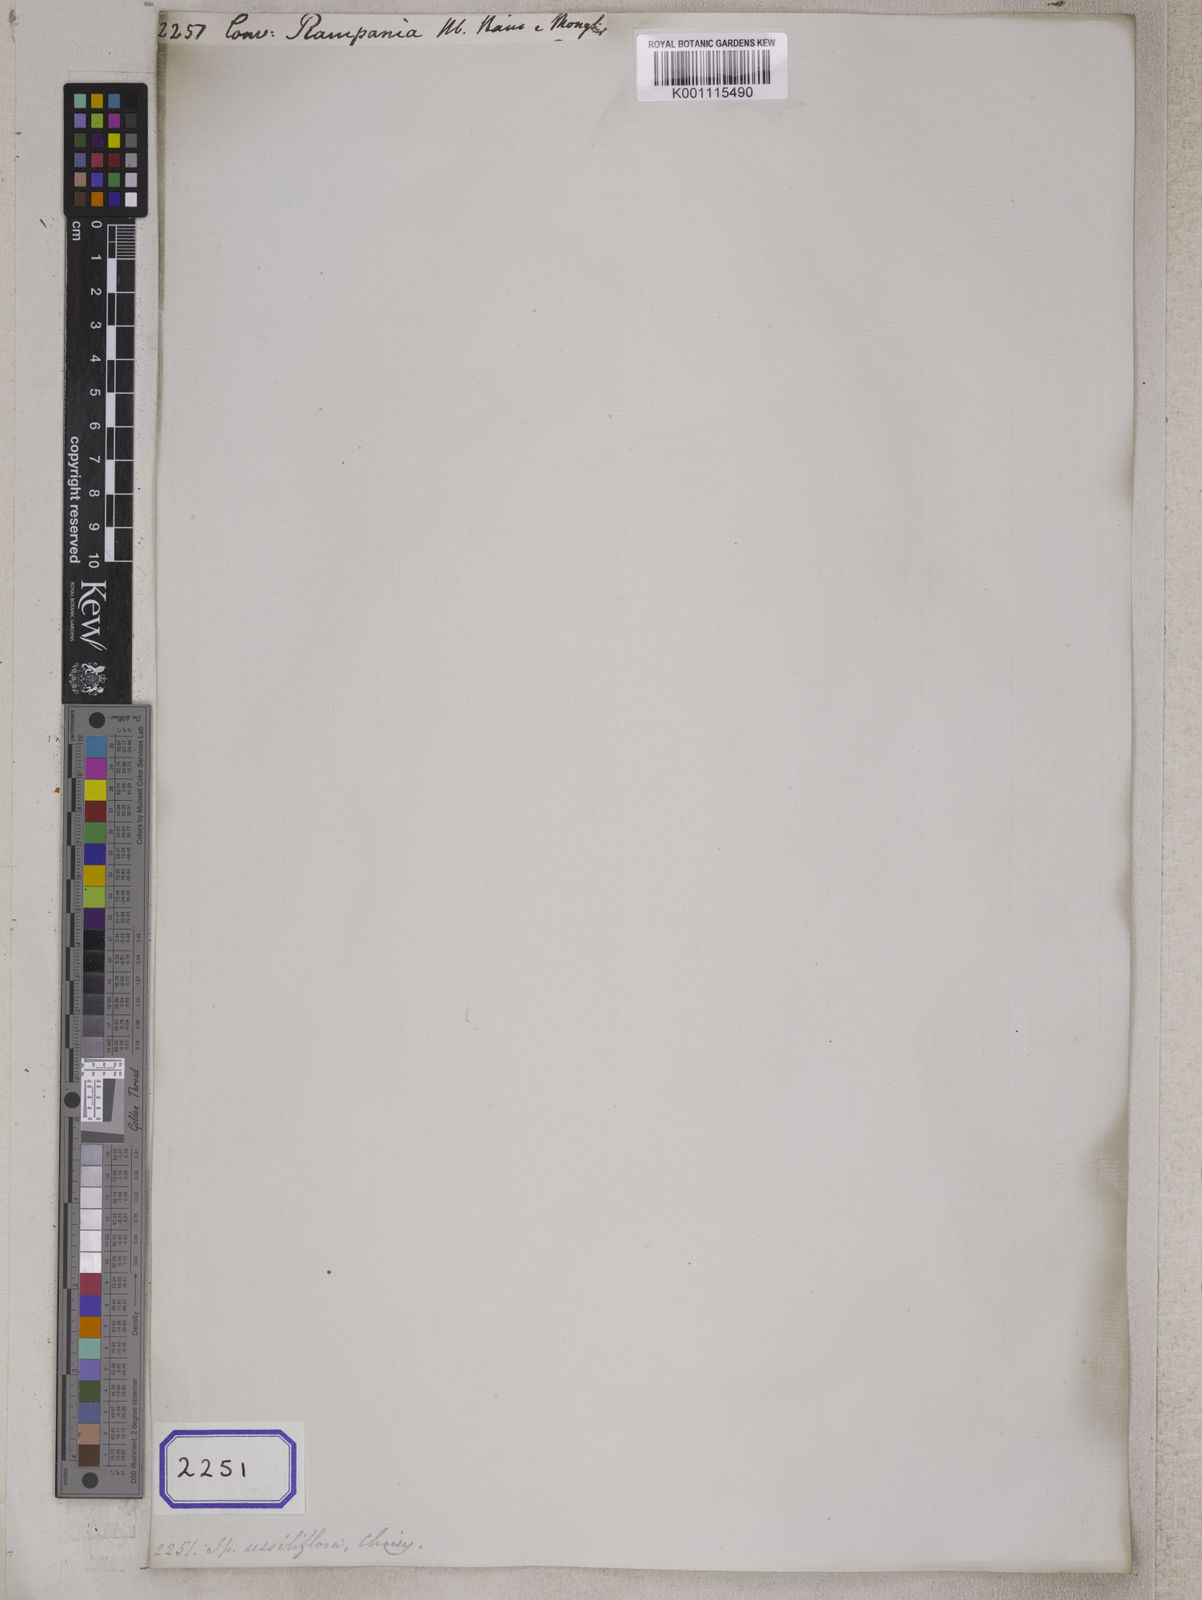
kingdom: Plantae
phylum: Tracheophyta
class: Magnoliopsida
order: Solanales
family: Convolvulaceae
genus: Ipomoea
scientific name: Ipomoea eriocarpa
